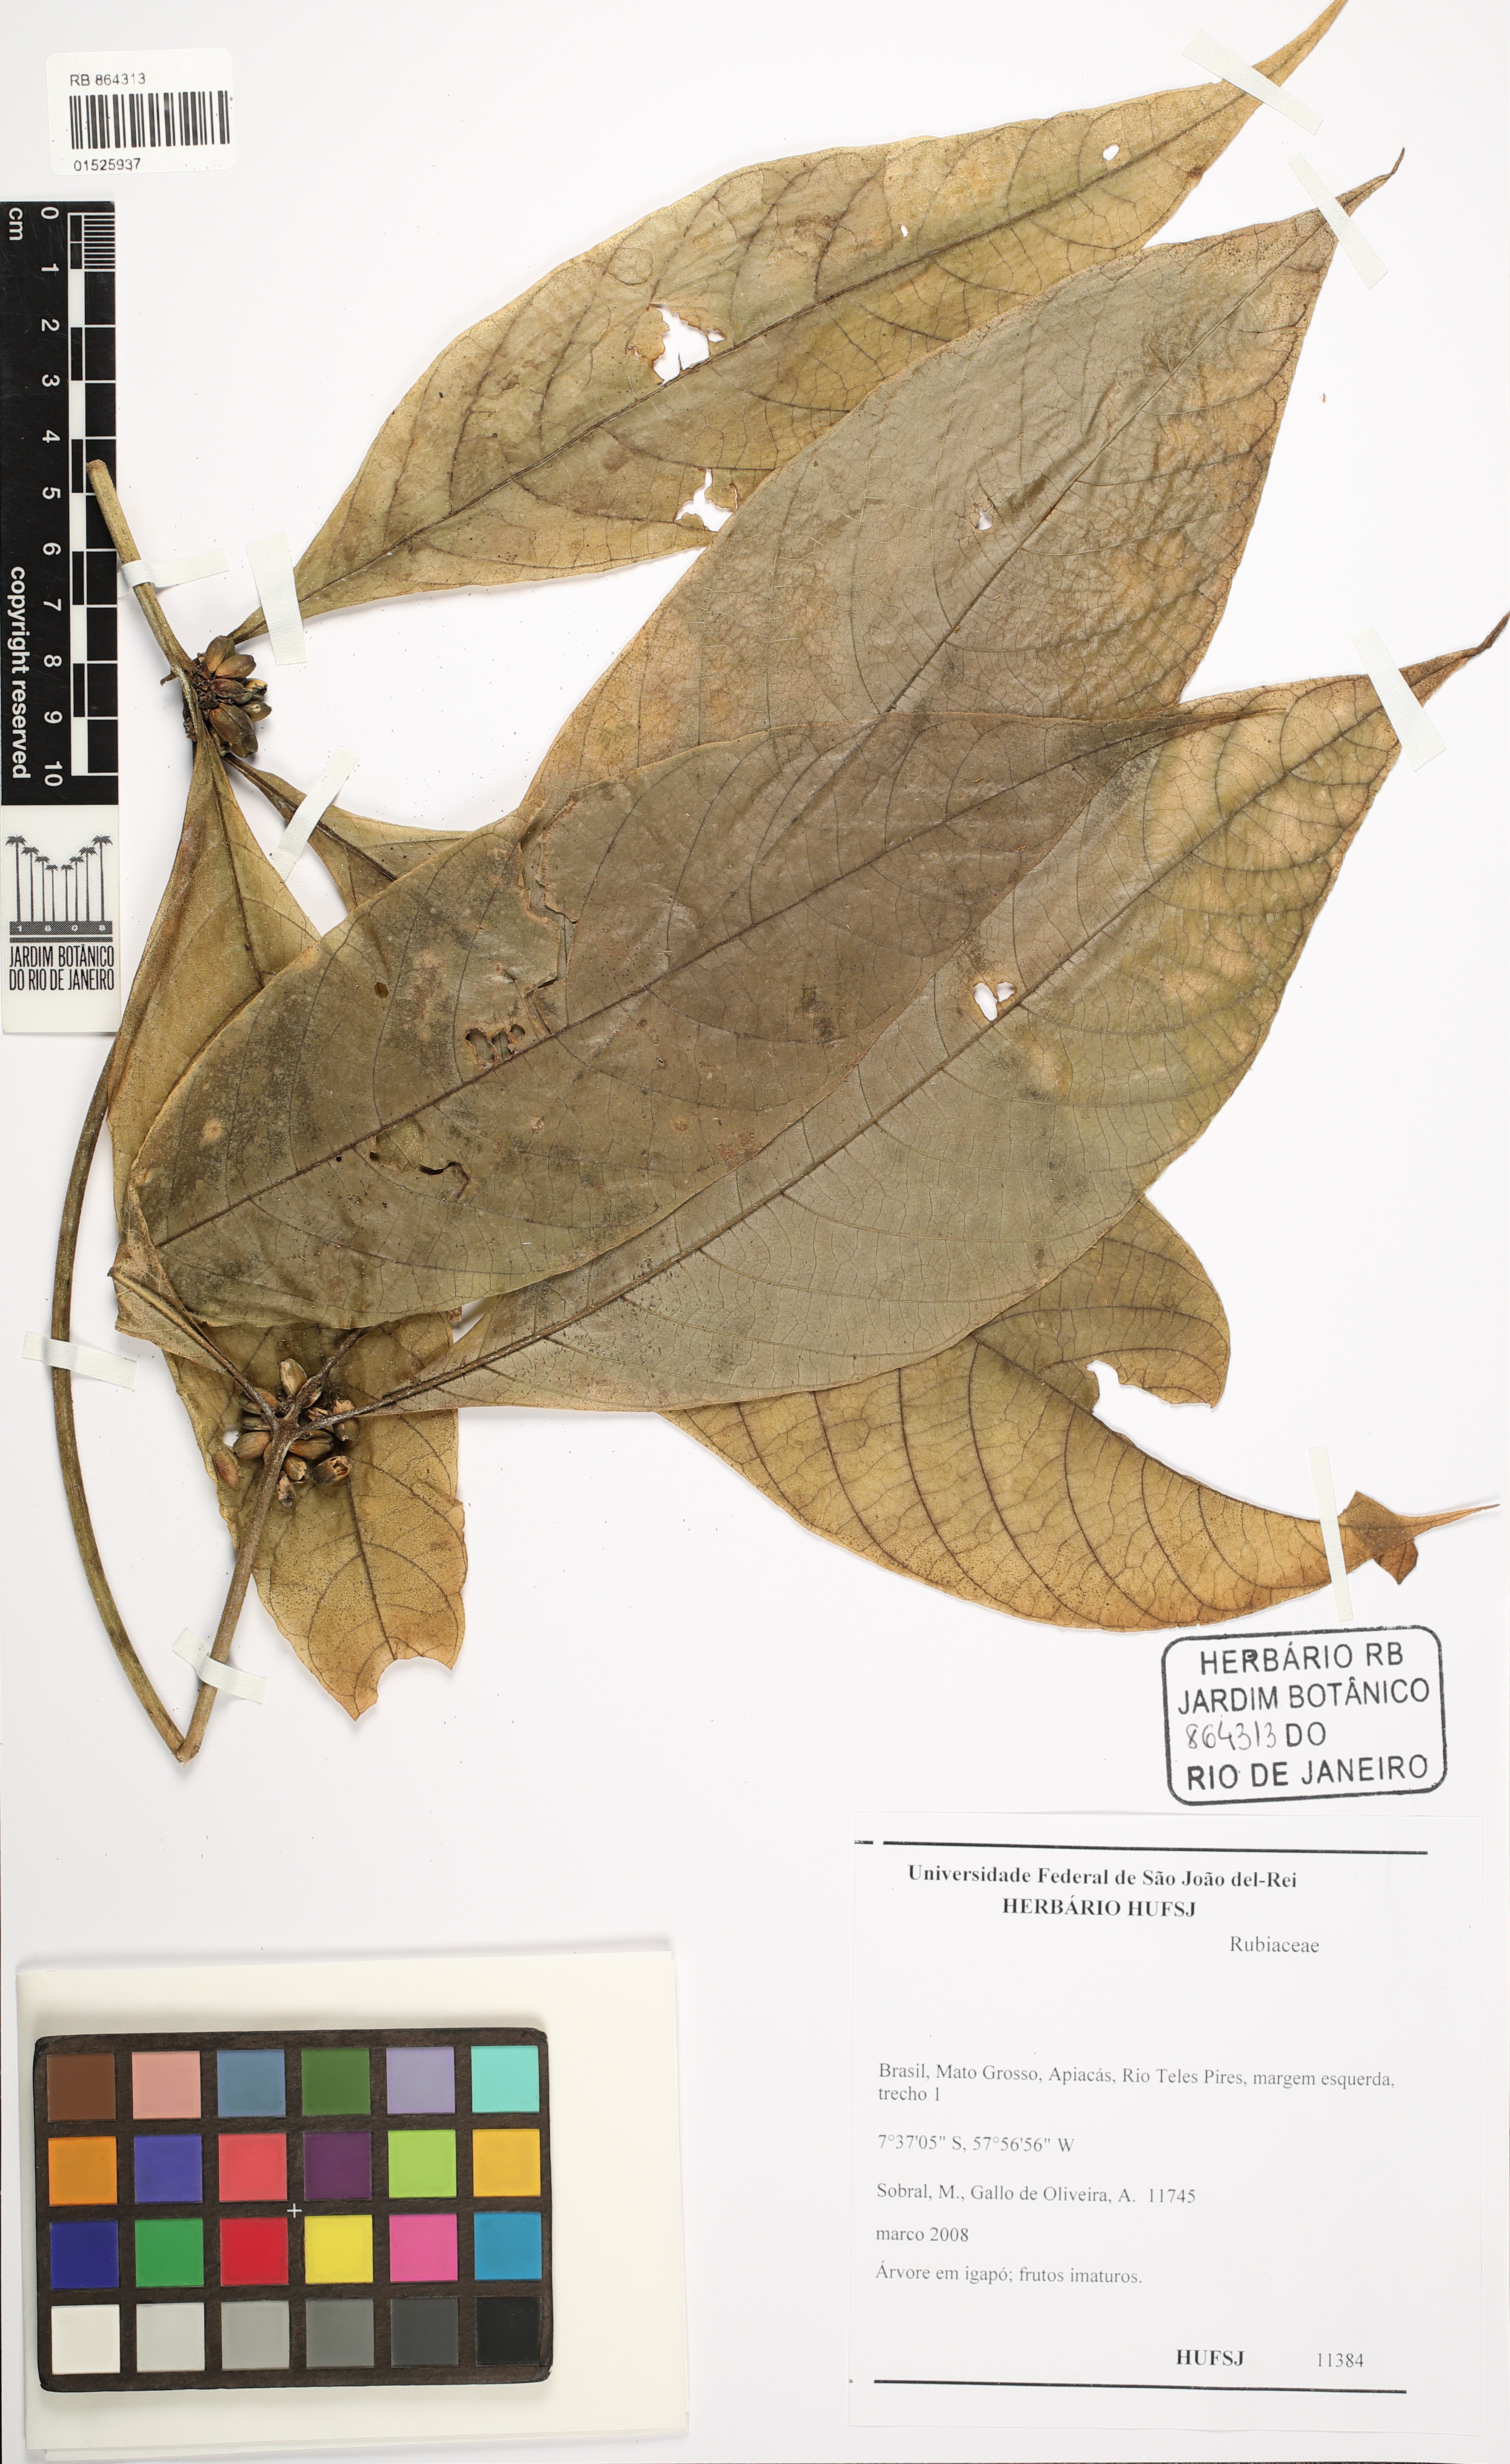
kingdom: Plantae
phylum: Tracheophyta
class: Magnoliopsida
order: Gentianales
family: Rubiaceae
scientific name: Rubiaceae
